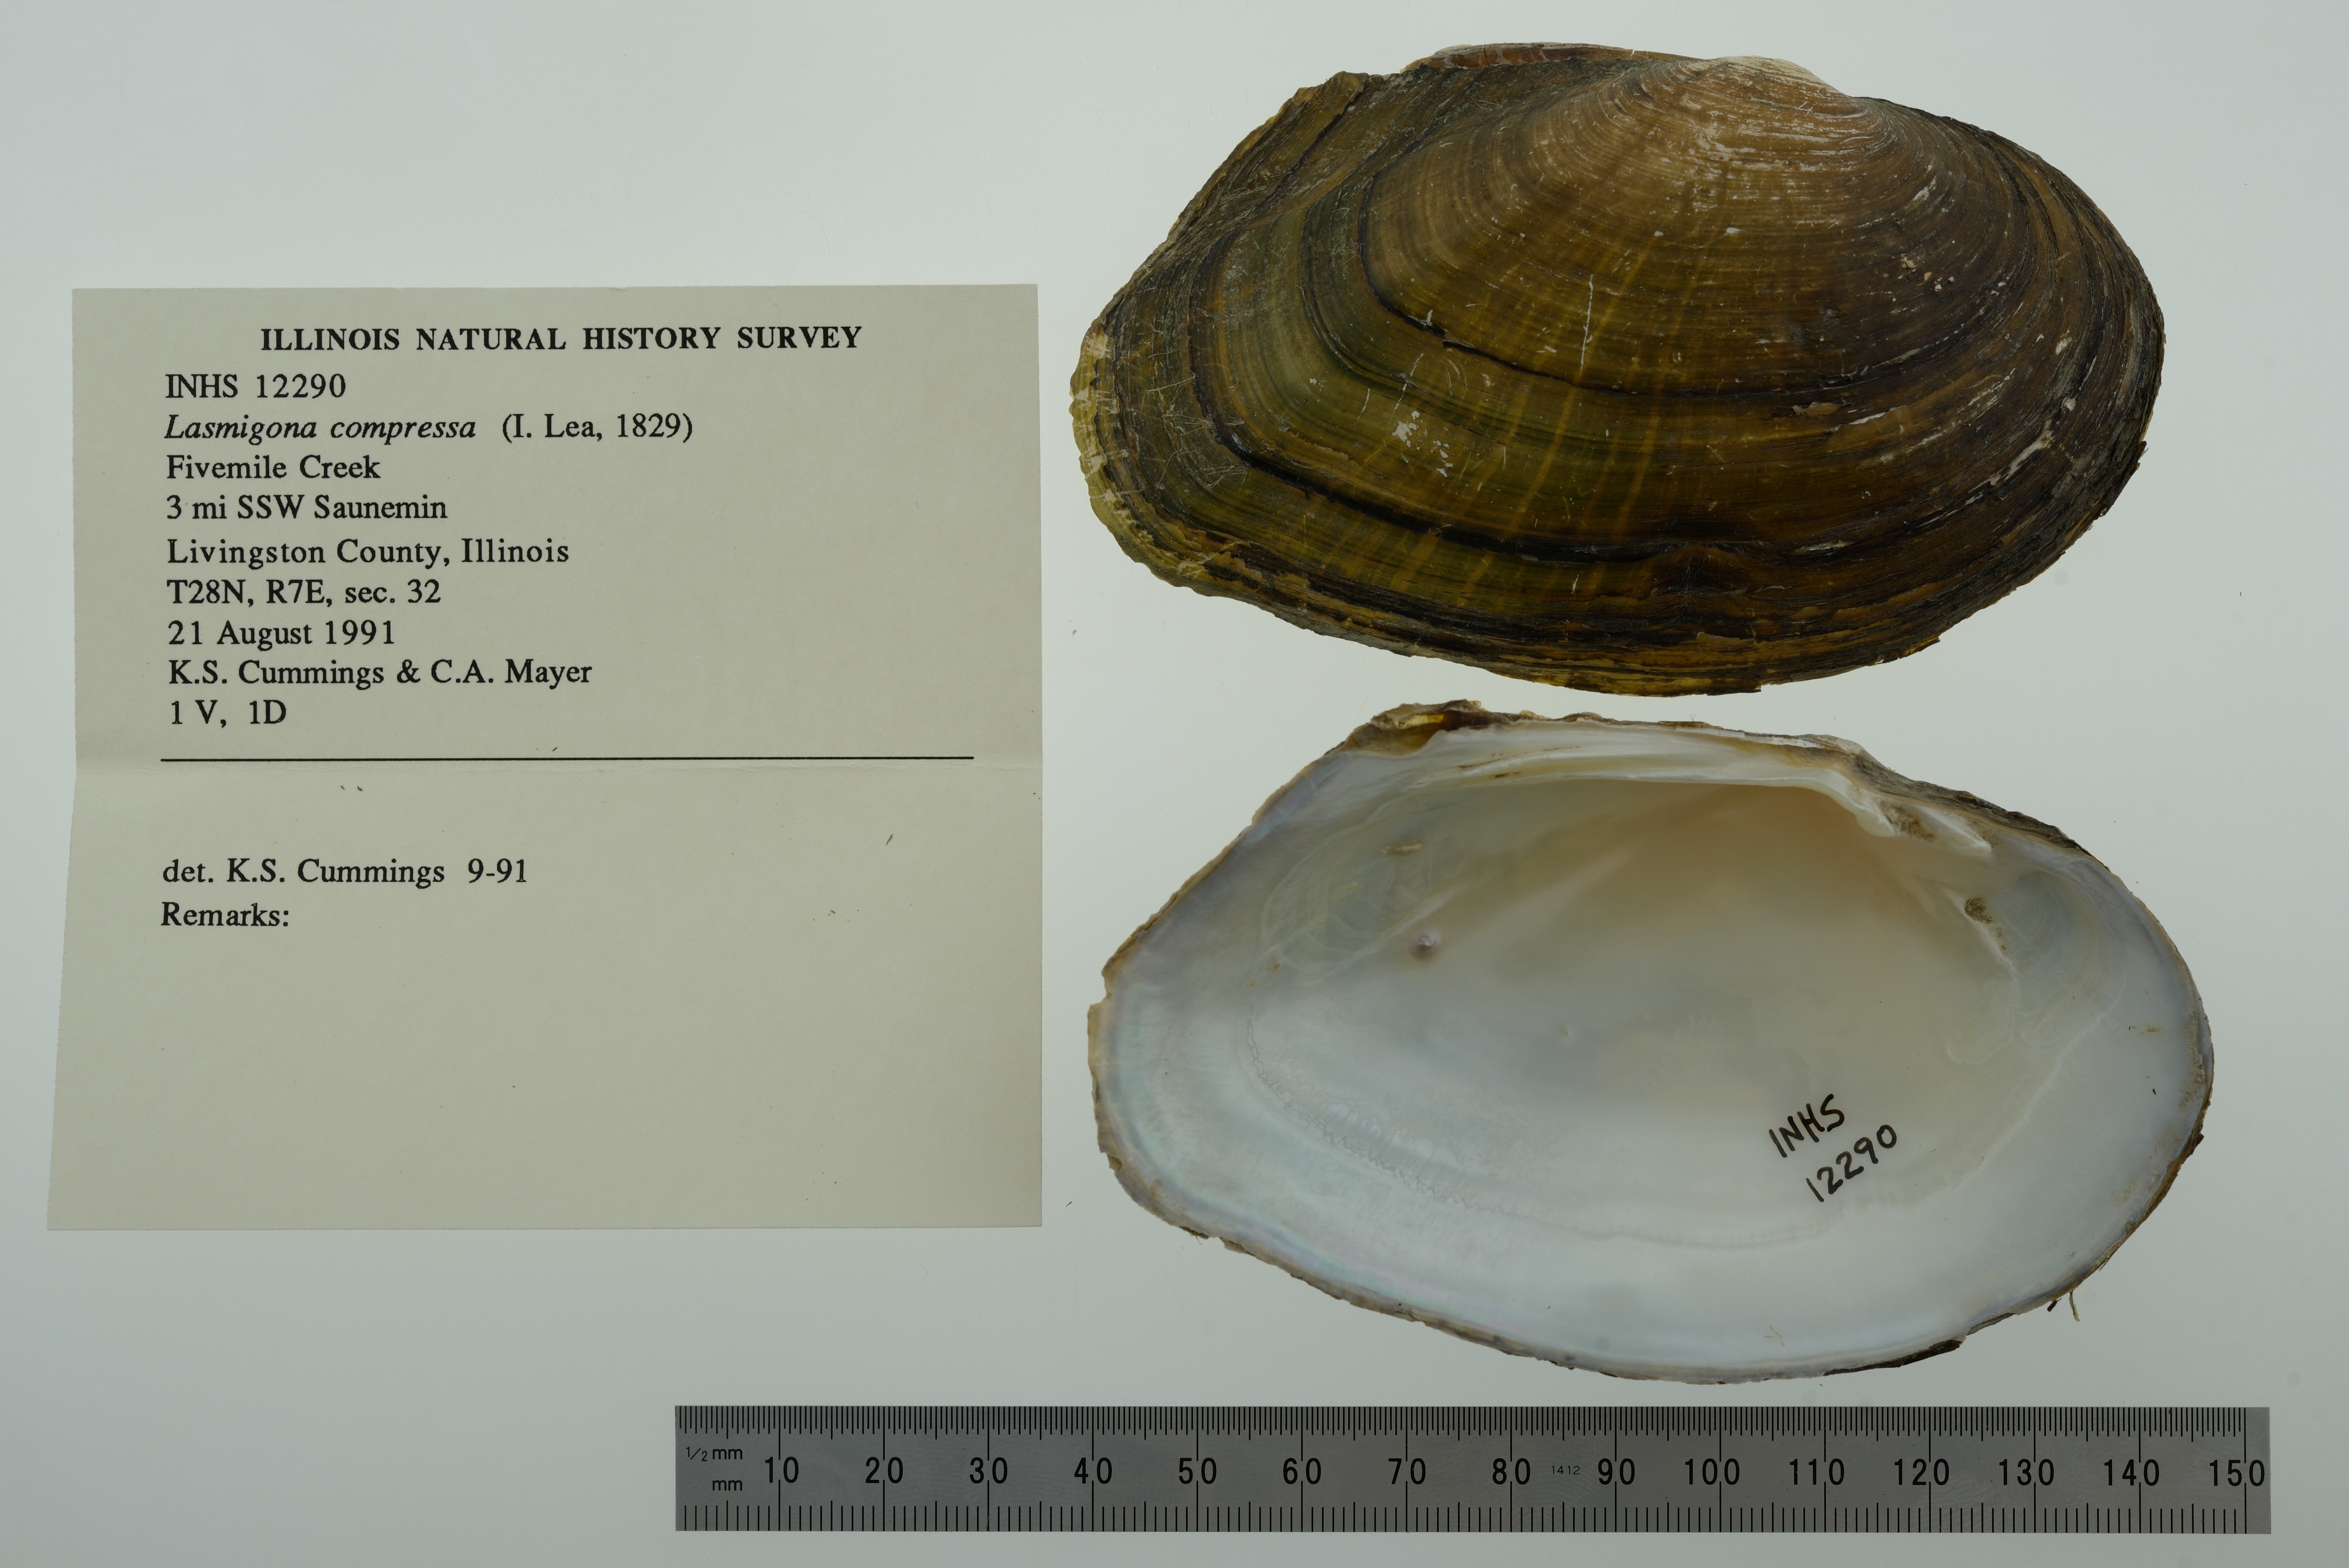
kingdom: Animalia
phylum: Mollusca
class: Bivalvia
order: Unionida
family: Unionidae
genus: Lasmigona
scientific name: Lasmigona compressa
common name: Creek heelsplitter
